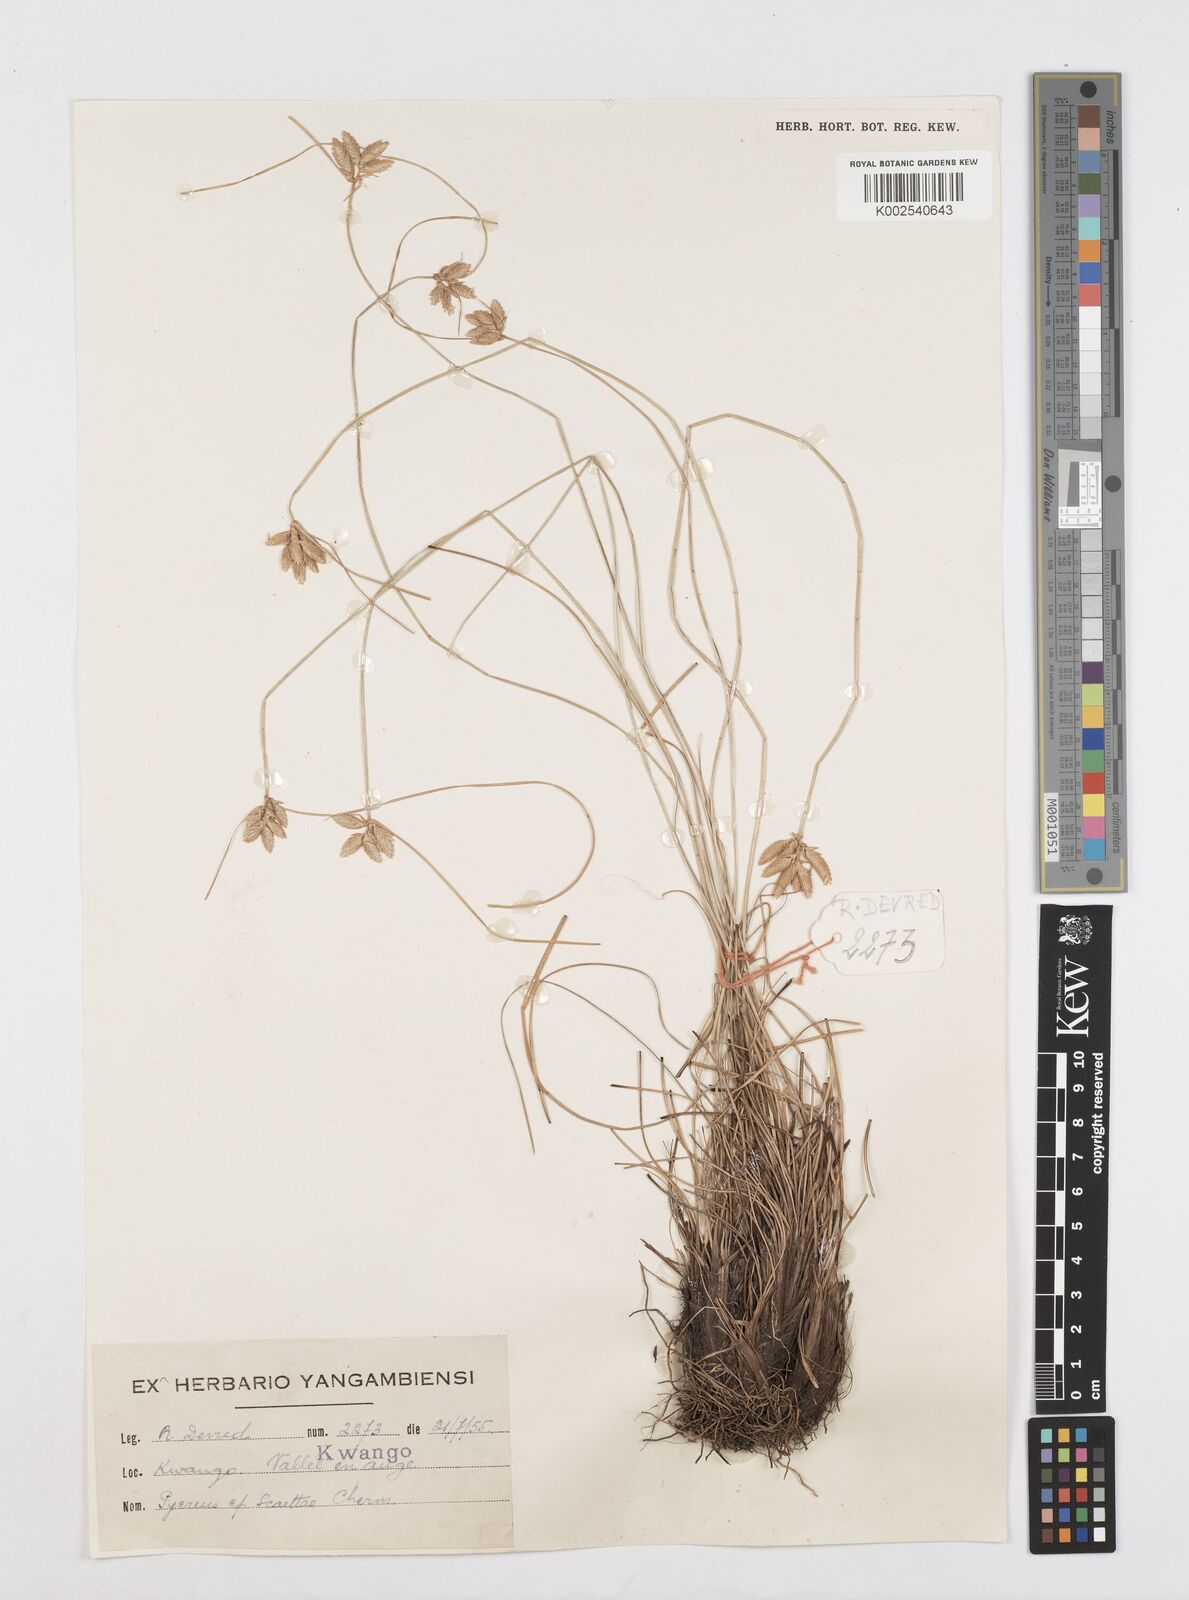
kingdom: Plantae
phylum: Tracheophyta
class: Liliopsida
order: Poales
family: Cyperaceae
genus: Cyperus
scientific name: Cyperus scaettae
